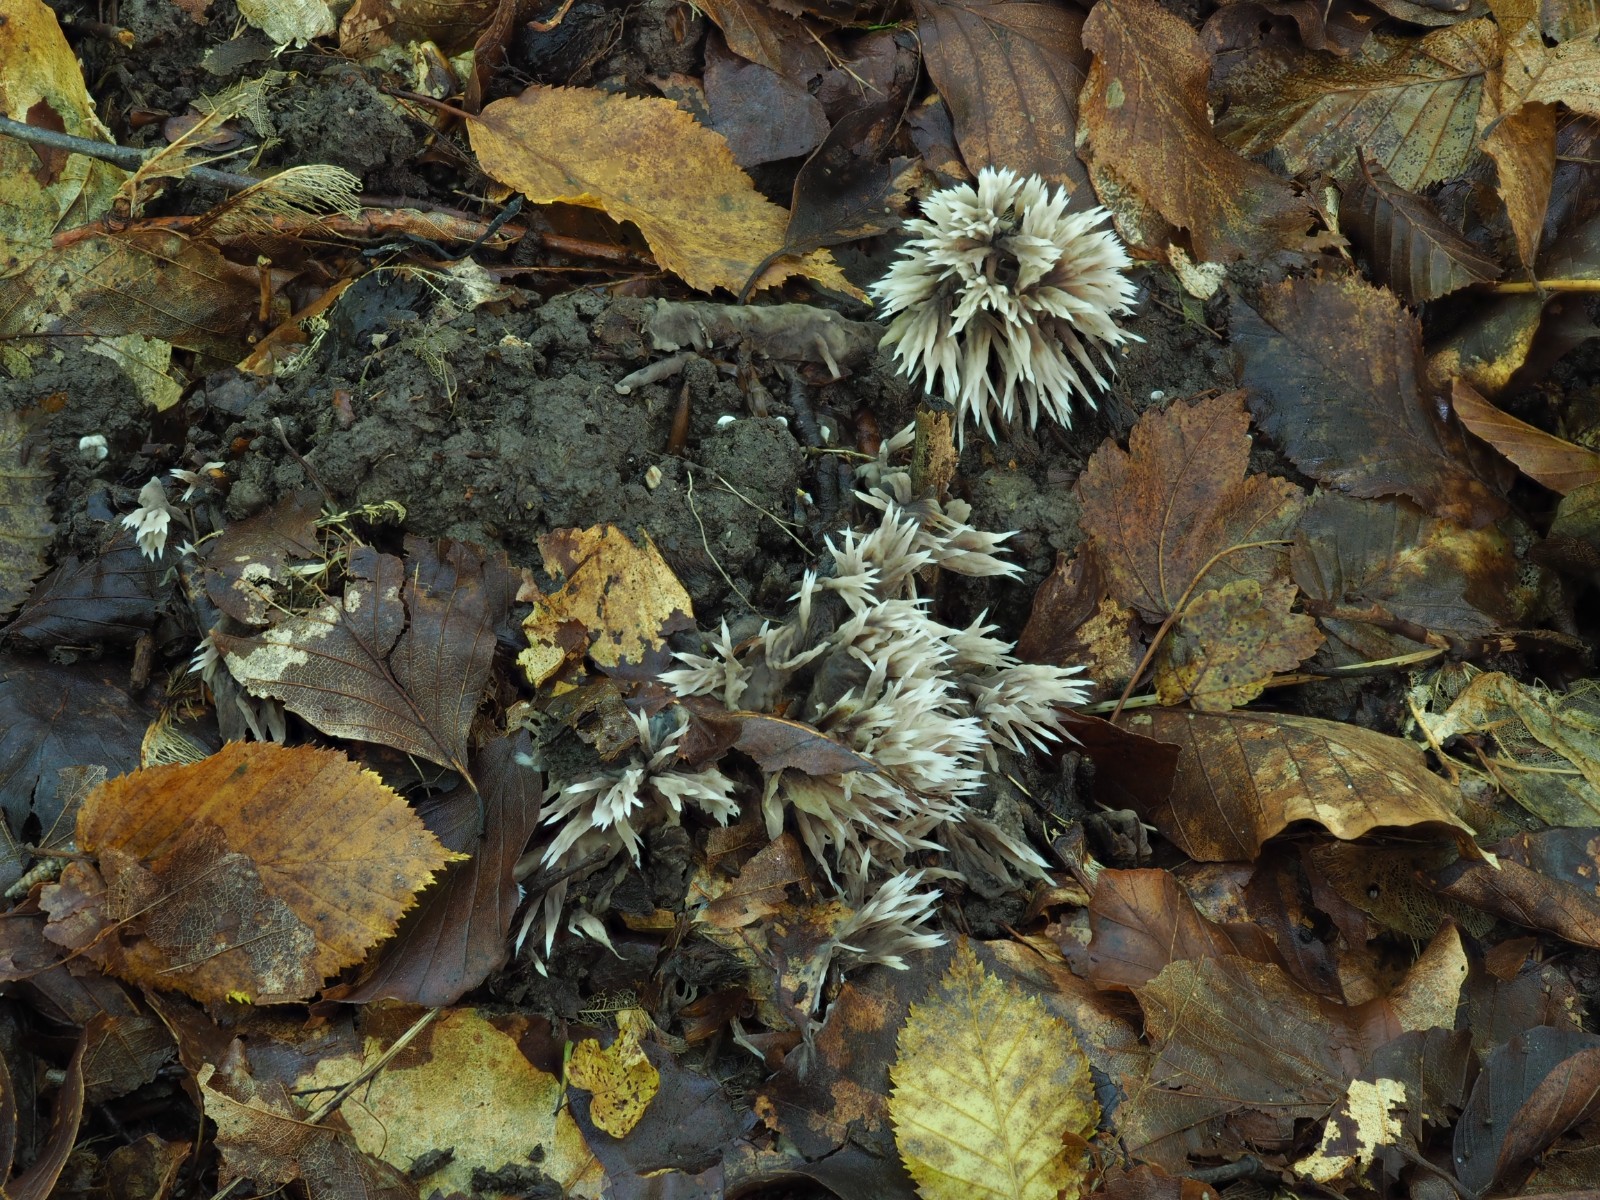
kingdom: Fungi
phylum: Basidiomycota
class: Agaricomycetes
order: Thelephorales
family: Thelephoraceae
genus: Thelephora
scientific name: Thelephora penicillata
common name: fladtrådt frynsesvamp
